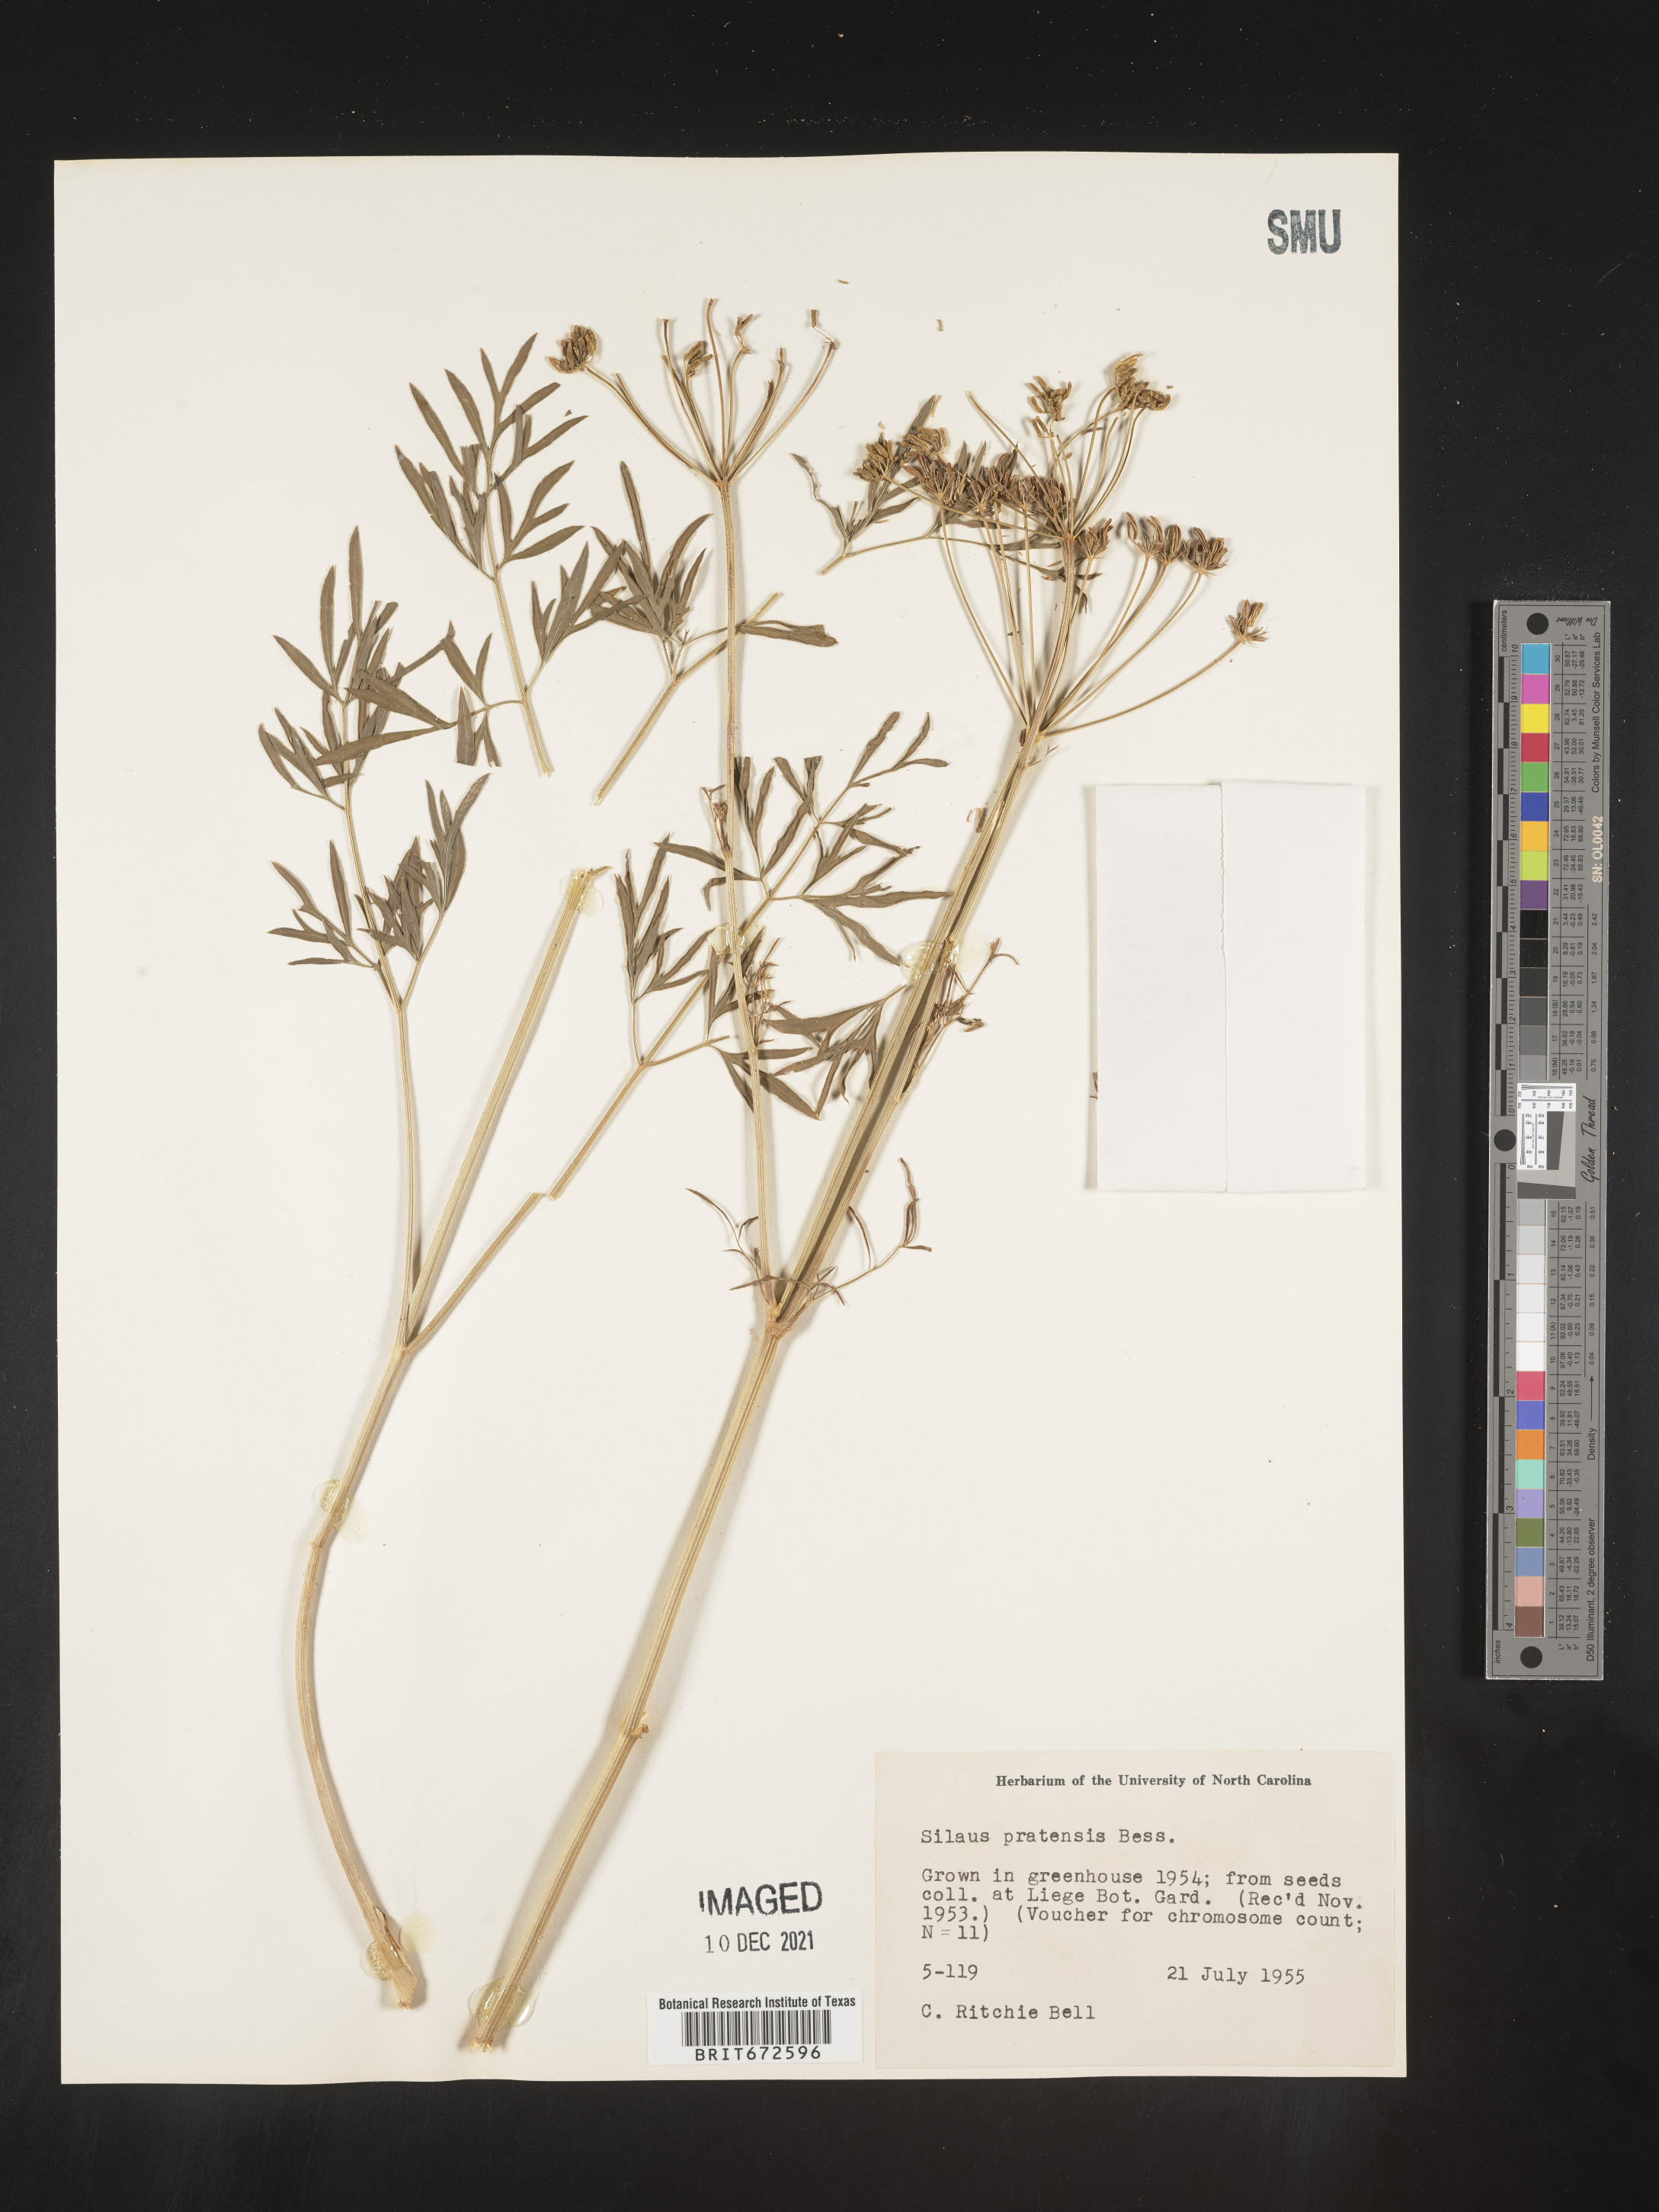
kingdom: Plantae
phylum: Tracheophyta
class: Magnoliopsida
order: Apiales
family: Apiaceae
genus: Silaum
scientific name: Silaum
